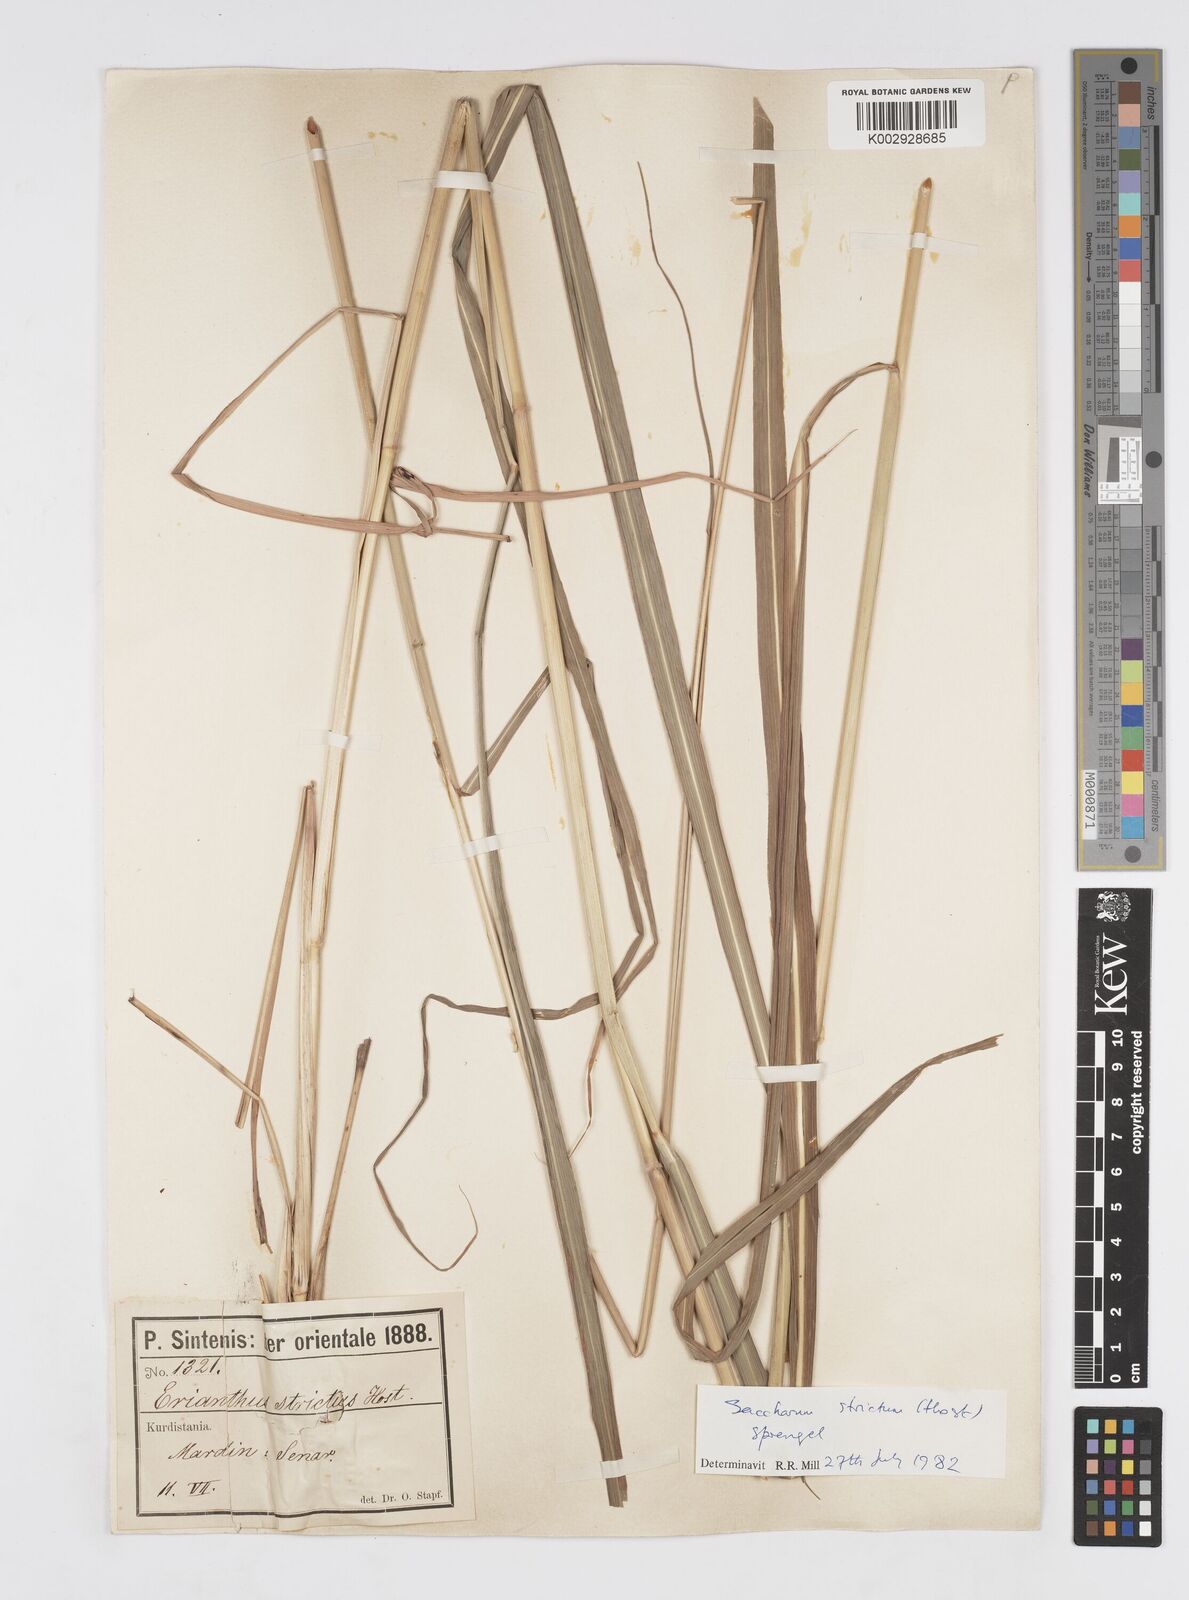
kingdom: Plantae
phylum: Tracheophyta
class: Liliopsida
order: Poales
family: Poaceae
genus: Tripidium
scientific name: Tripidium strictum
